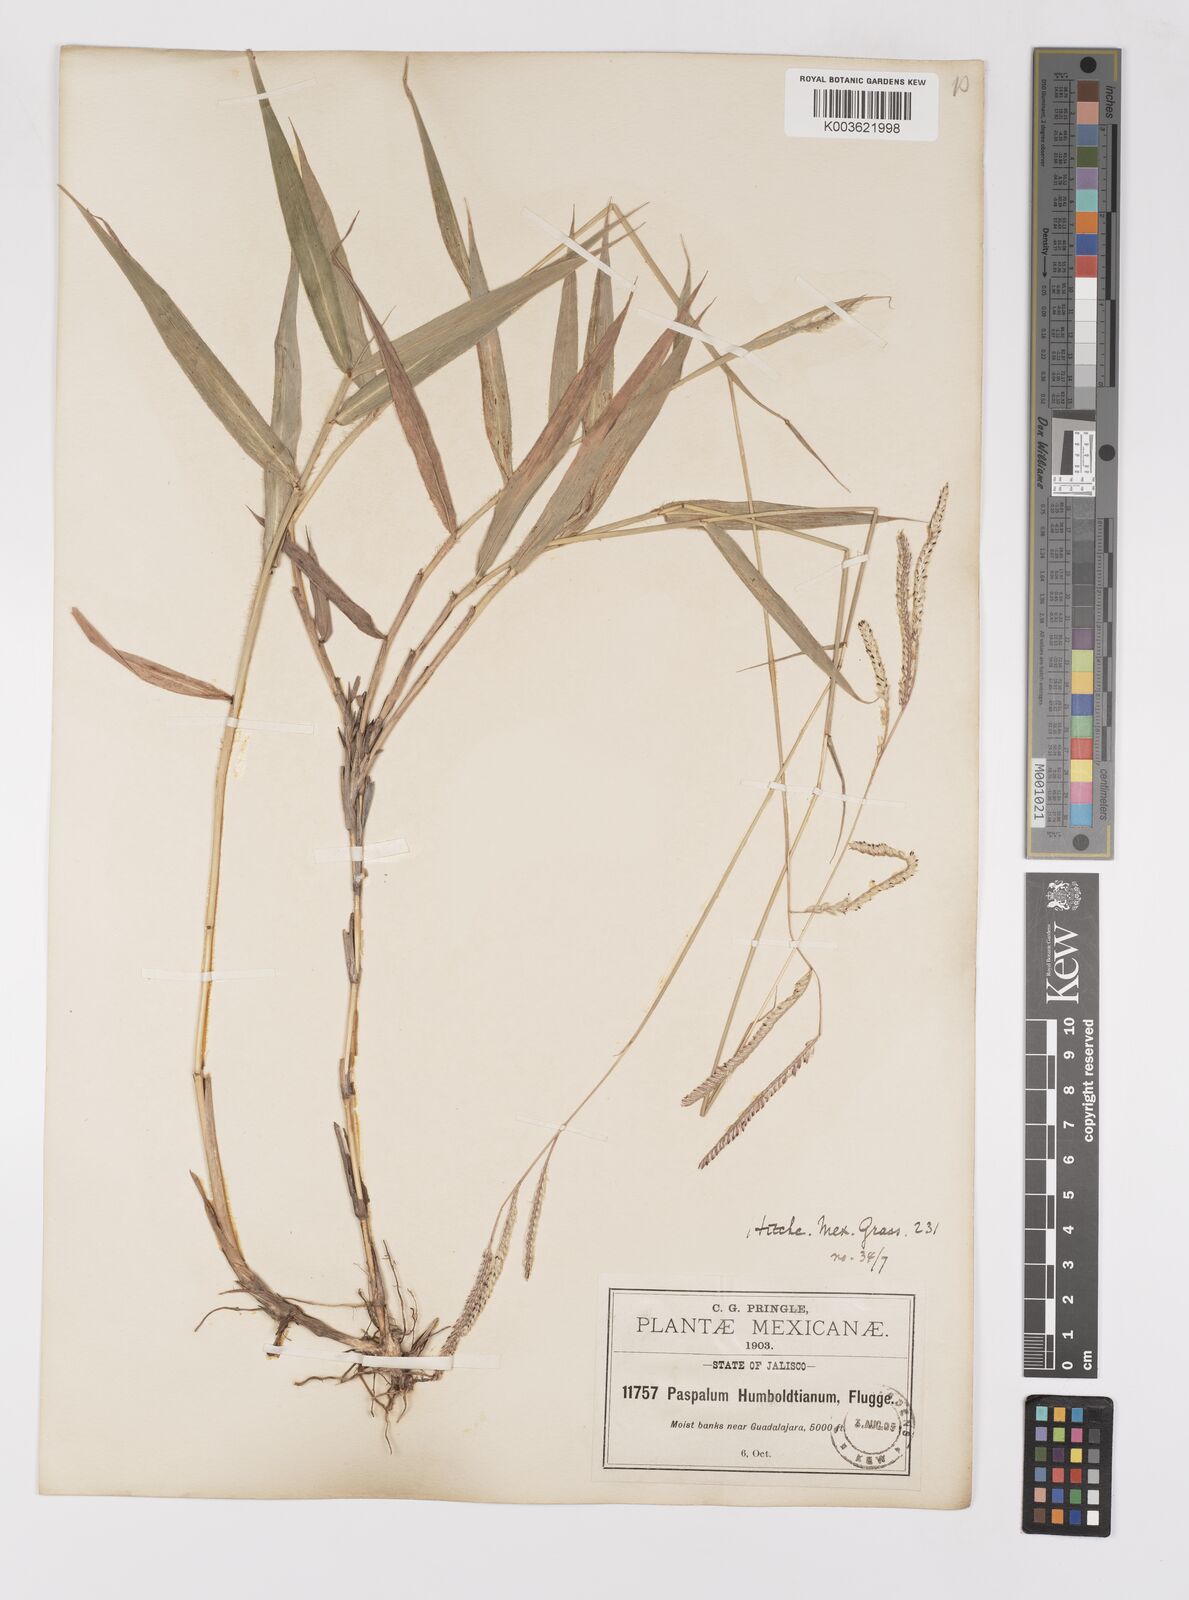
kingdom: Plantae
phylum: Tracheophyta
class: Liliopsida
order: Poales
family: Poaceae
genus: Paspalum
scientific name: Paspalum humboldtianum
